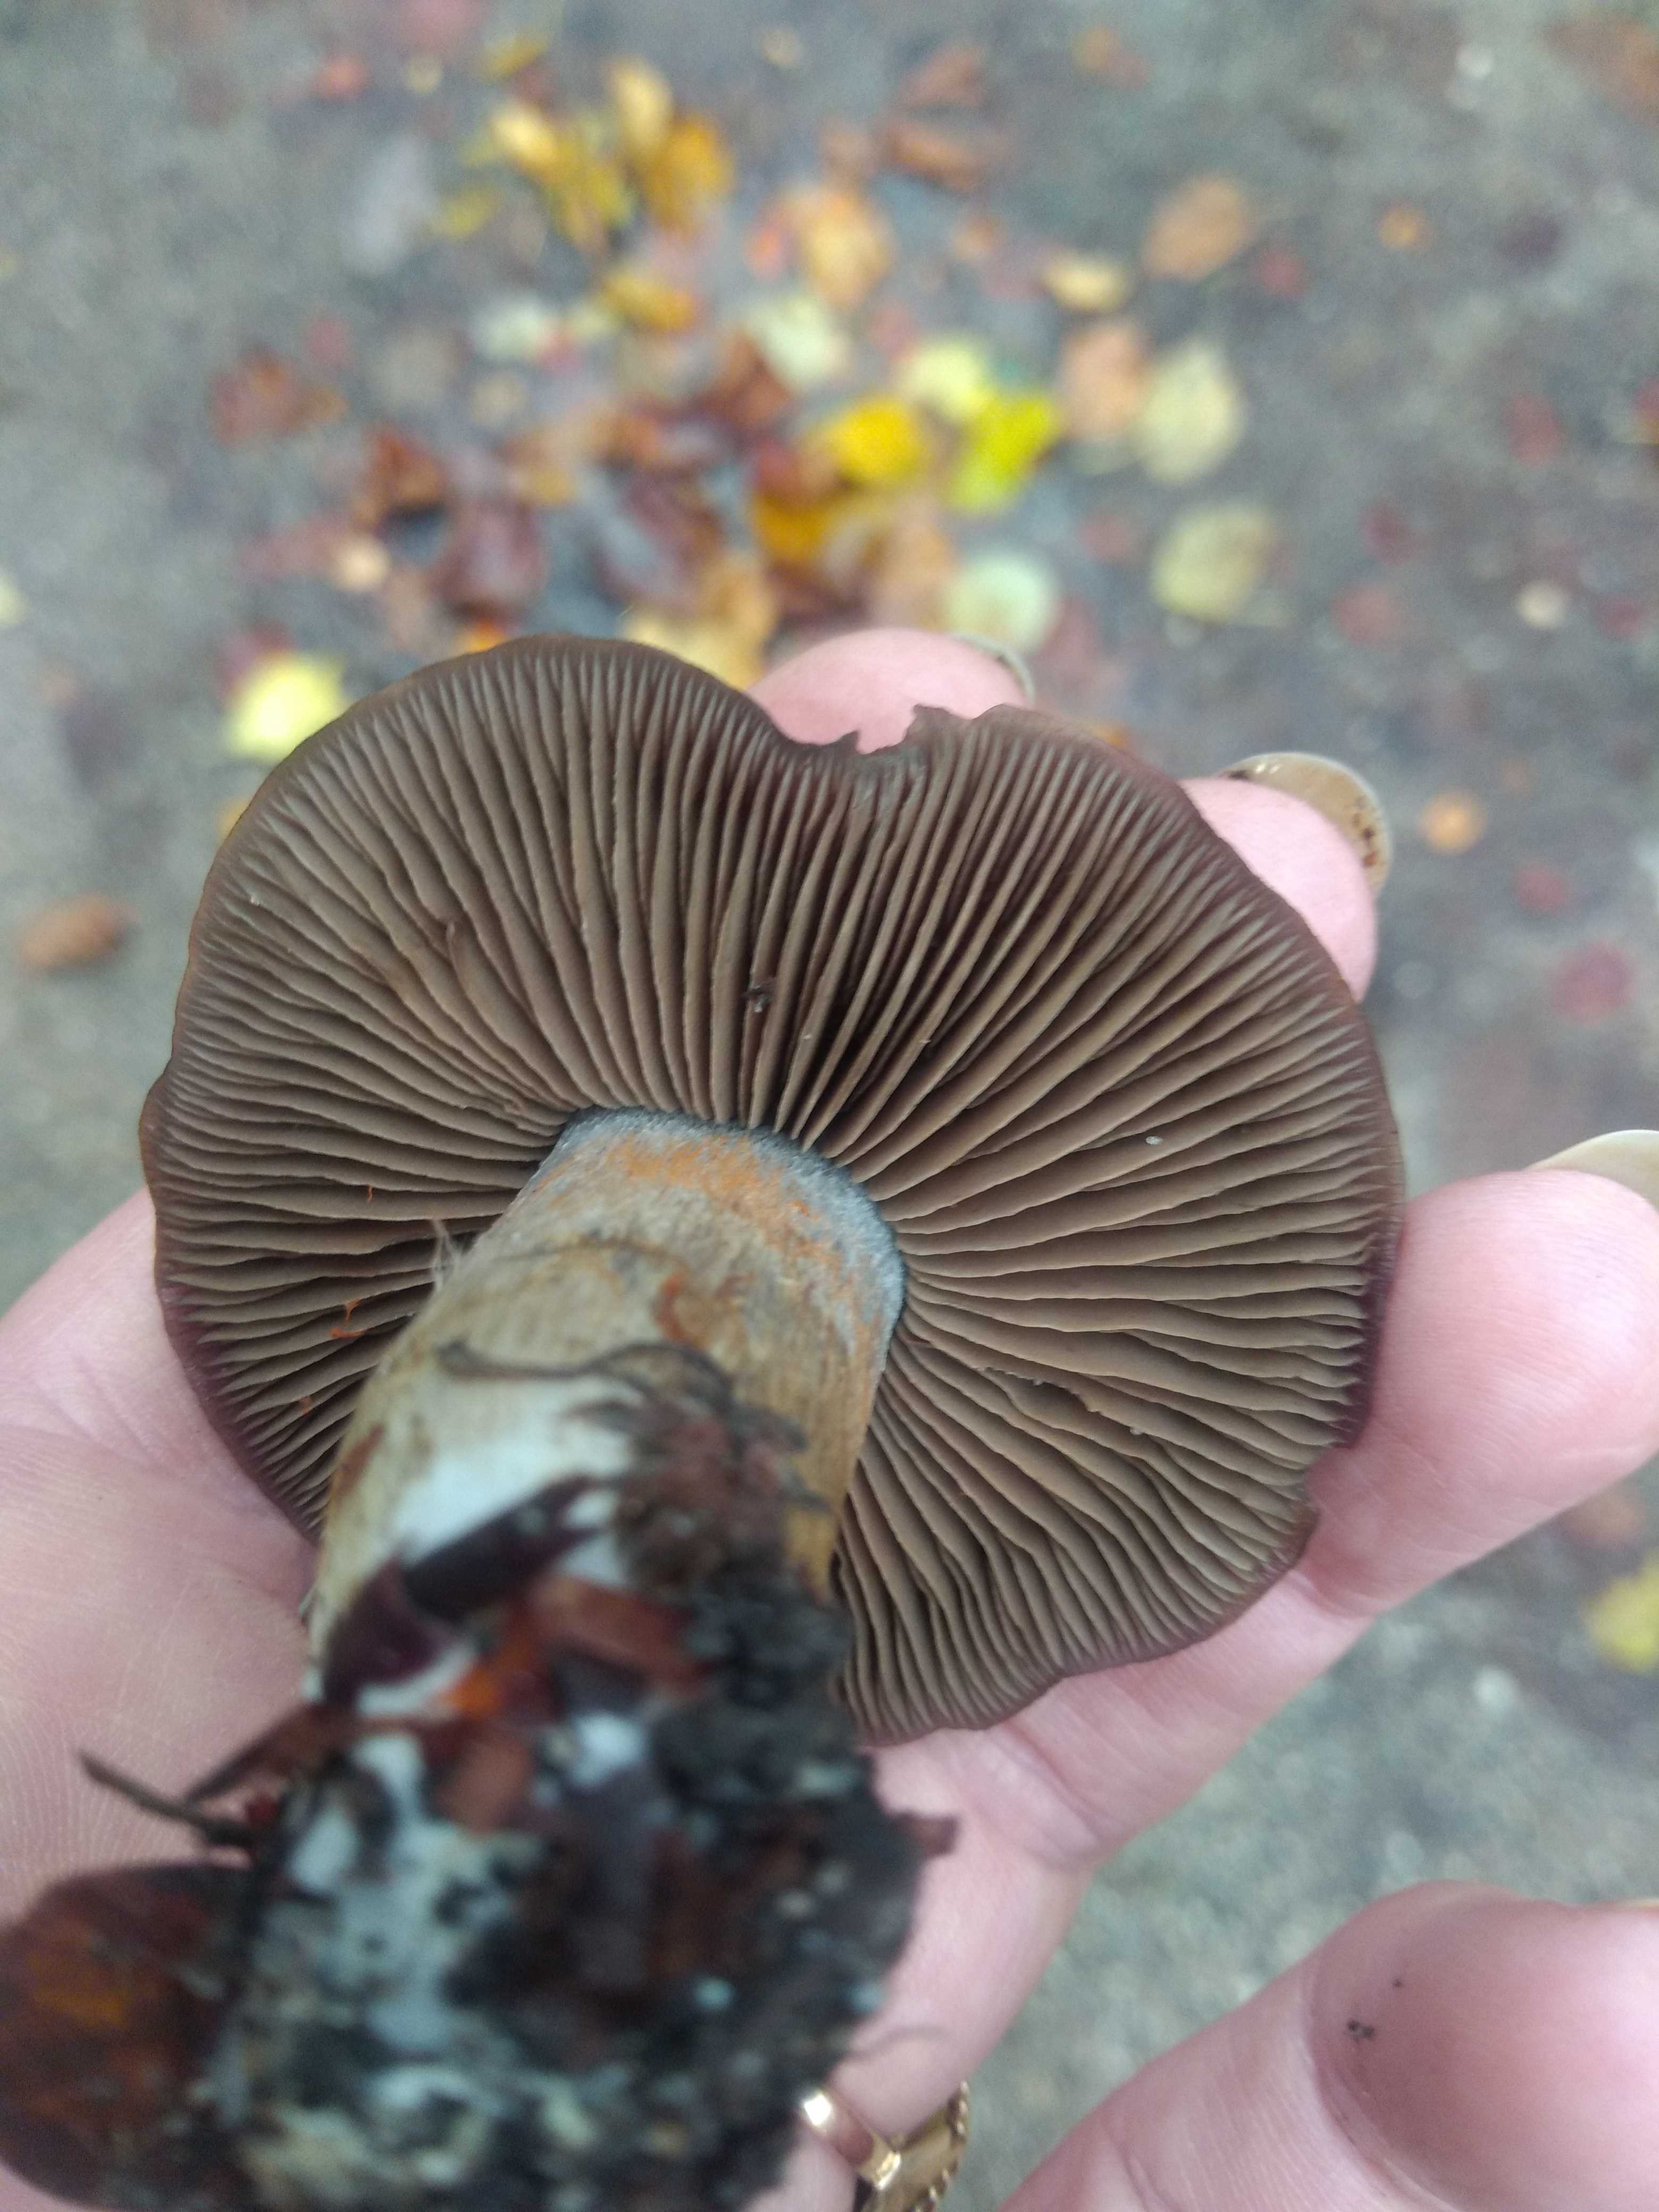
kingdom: Fungi
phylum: Basidiomycota
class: Agaricomycetes
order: Agaricales
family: Cortinariaceae
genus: Cortinarius
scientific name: Cortinarius
